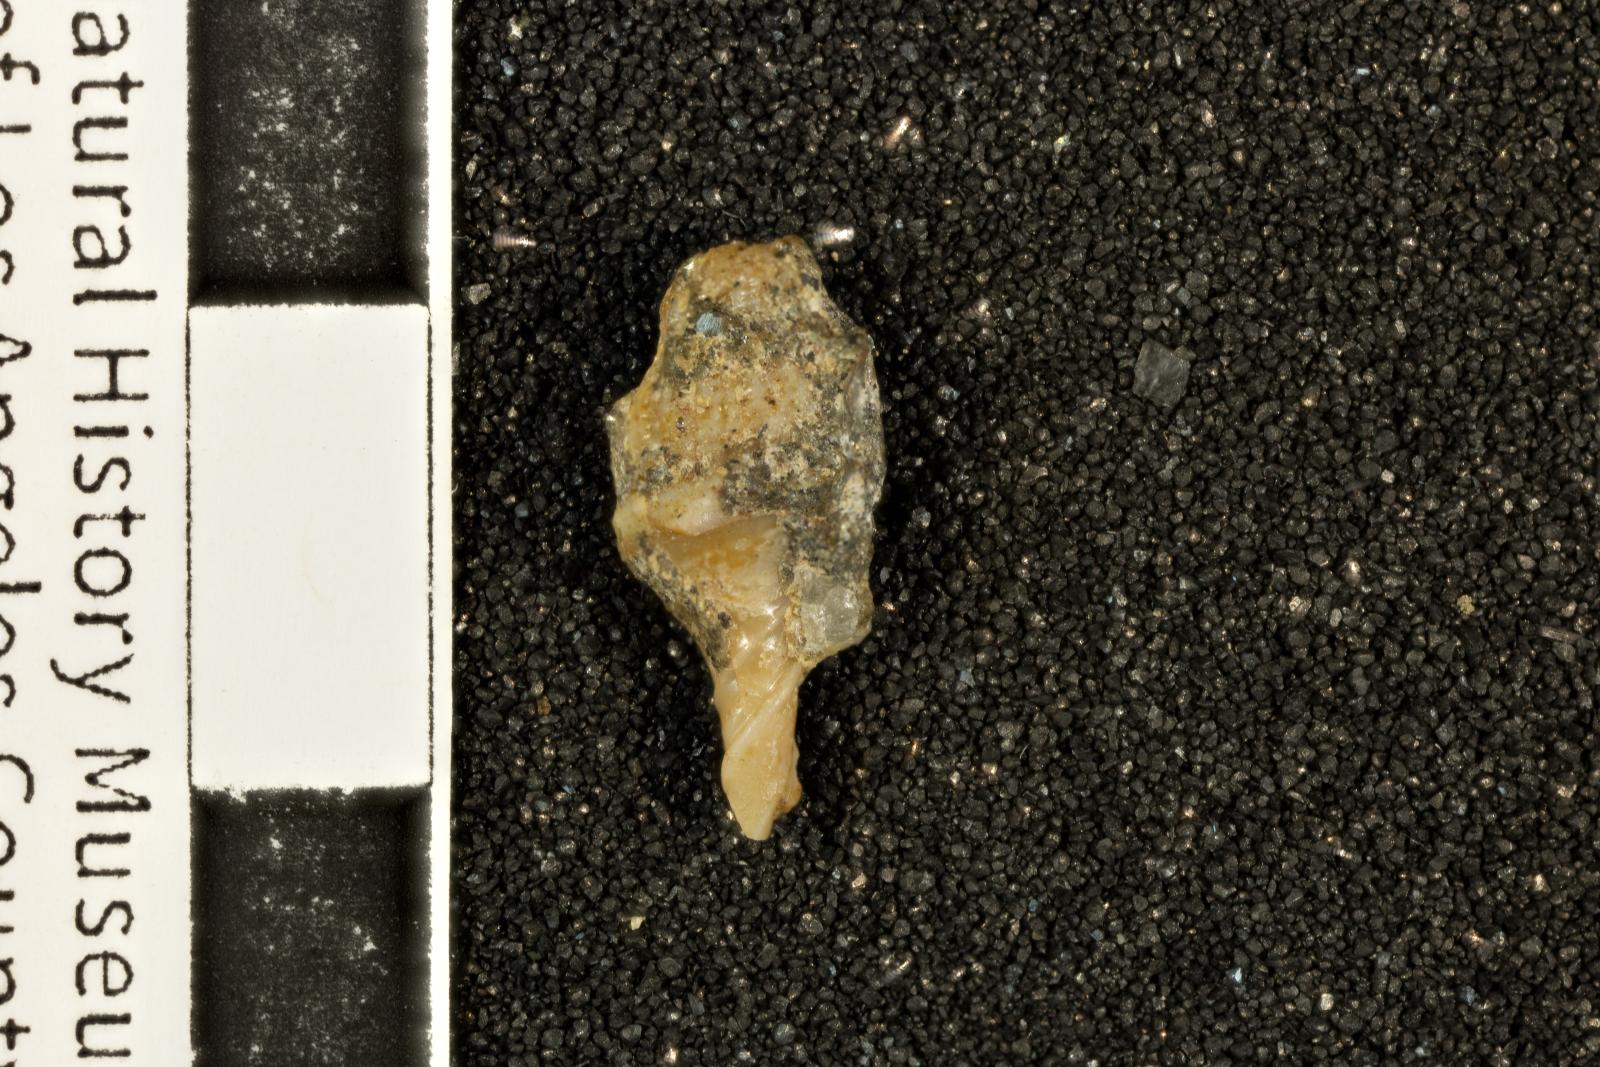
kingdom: Animalia
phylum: Mollusca
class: Gastropoda
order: Neogastropoda
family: Fasciolariidae
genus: Micasarcina
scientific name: Micasarcina vallis
